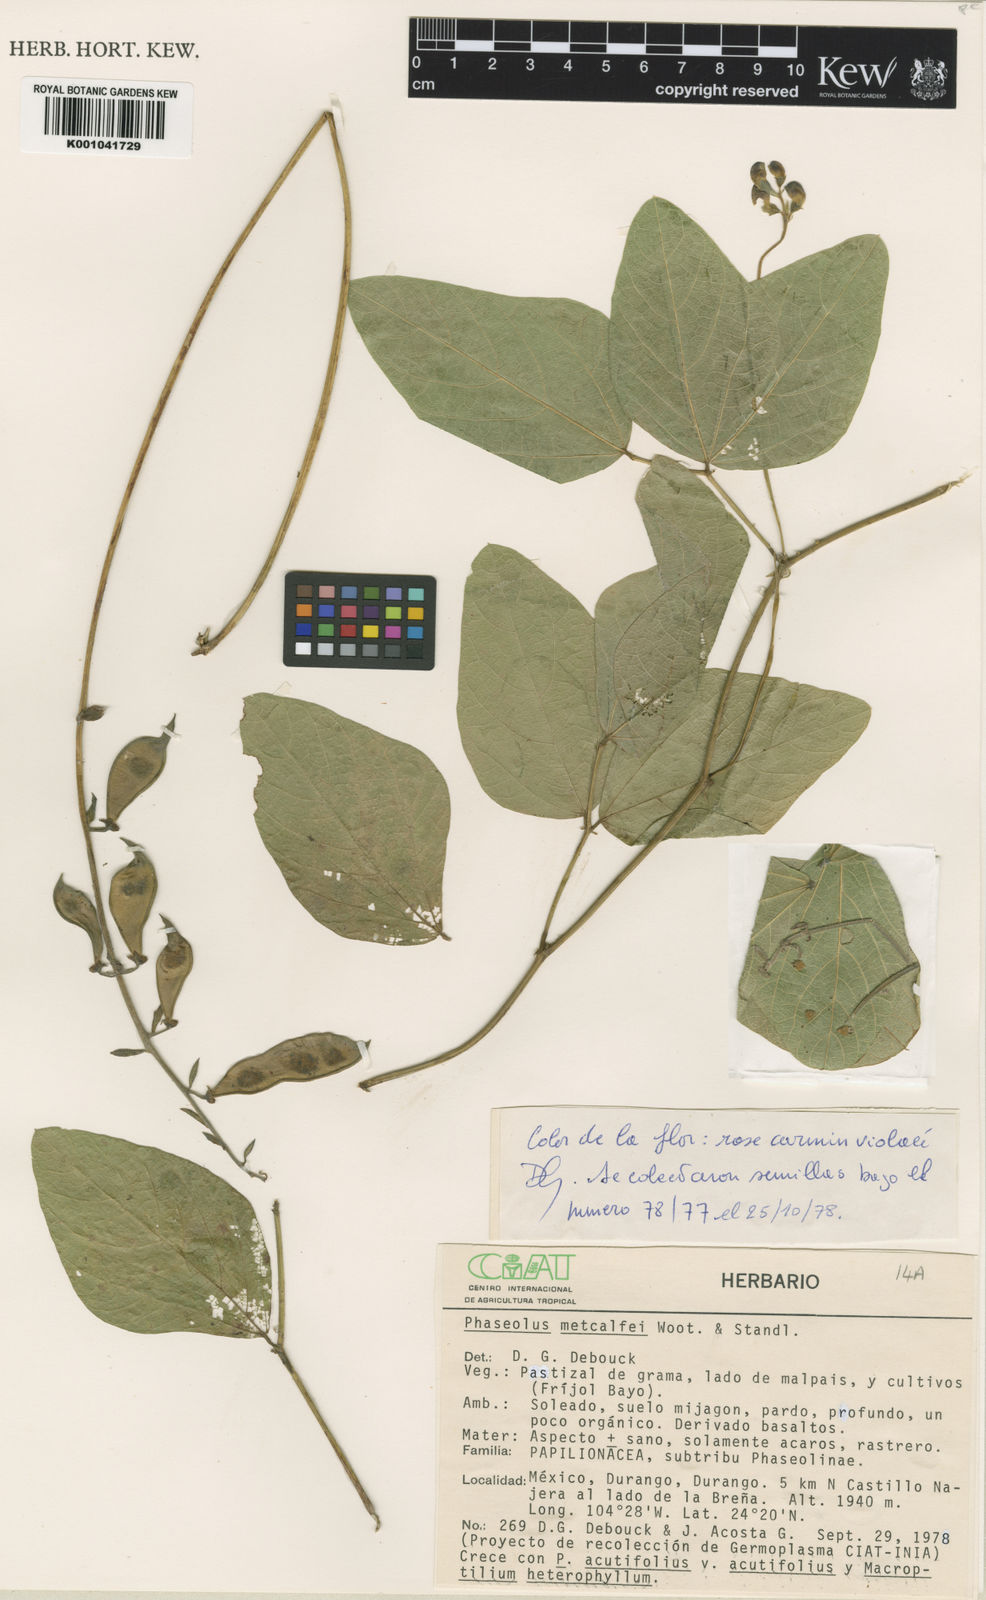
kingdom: Plantae
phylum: Tracheophyta
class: Magnoliopsida
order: Fabales
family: Fabaceae
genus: Phaseolus
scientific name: Phaseolus
